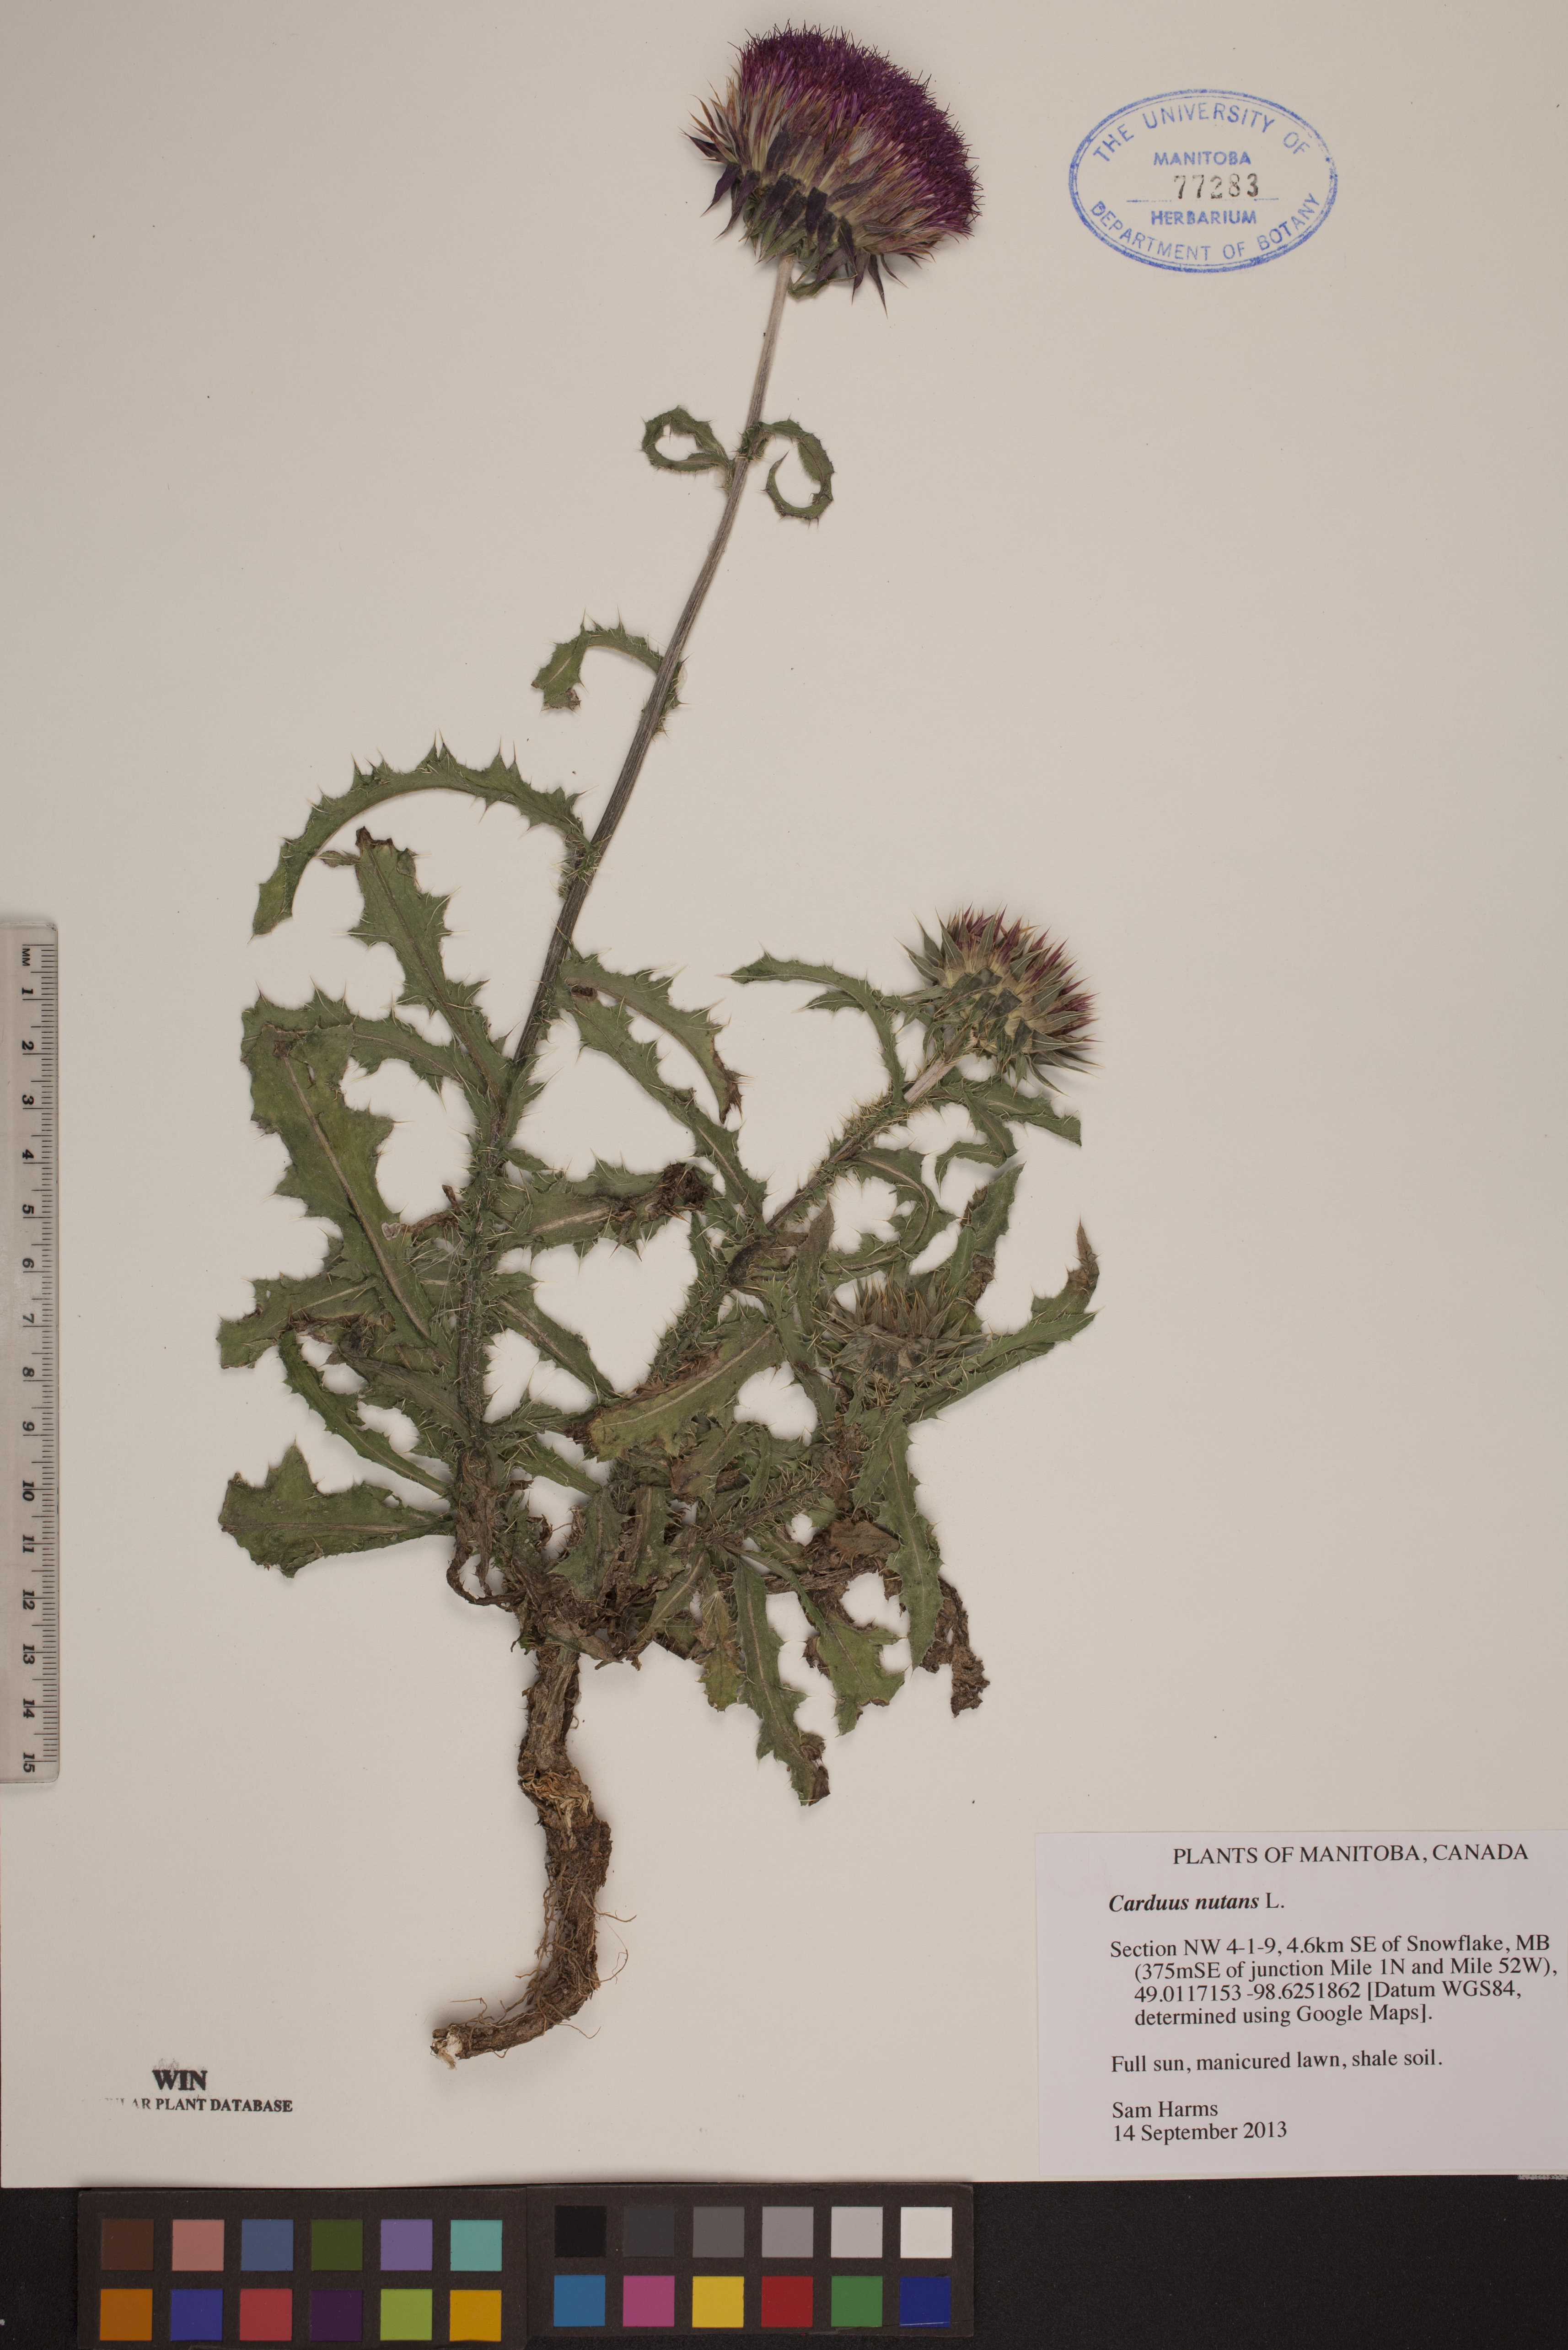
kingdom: Plantae
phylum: Tracheophyta
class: Magnoliopsida
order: Asterales
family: Asteraceae
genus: Carduus
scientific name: Carduus nutans
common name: Musk thistle
